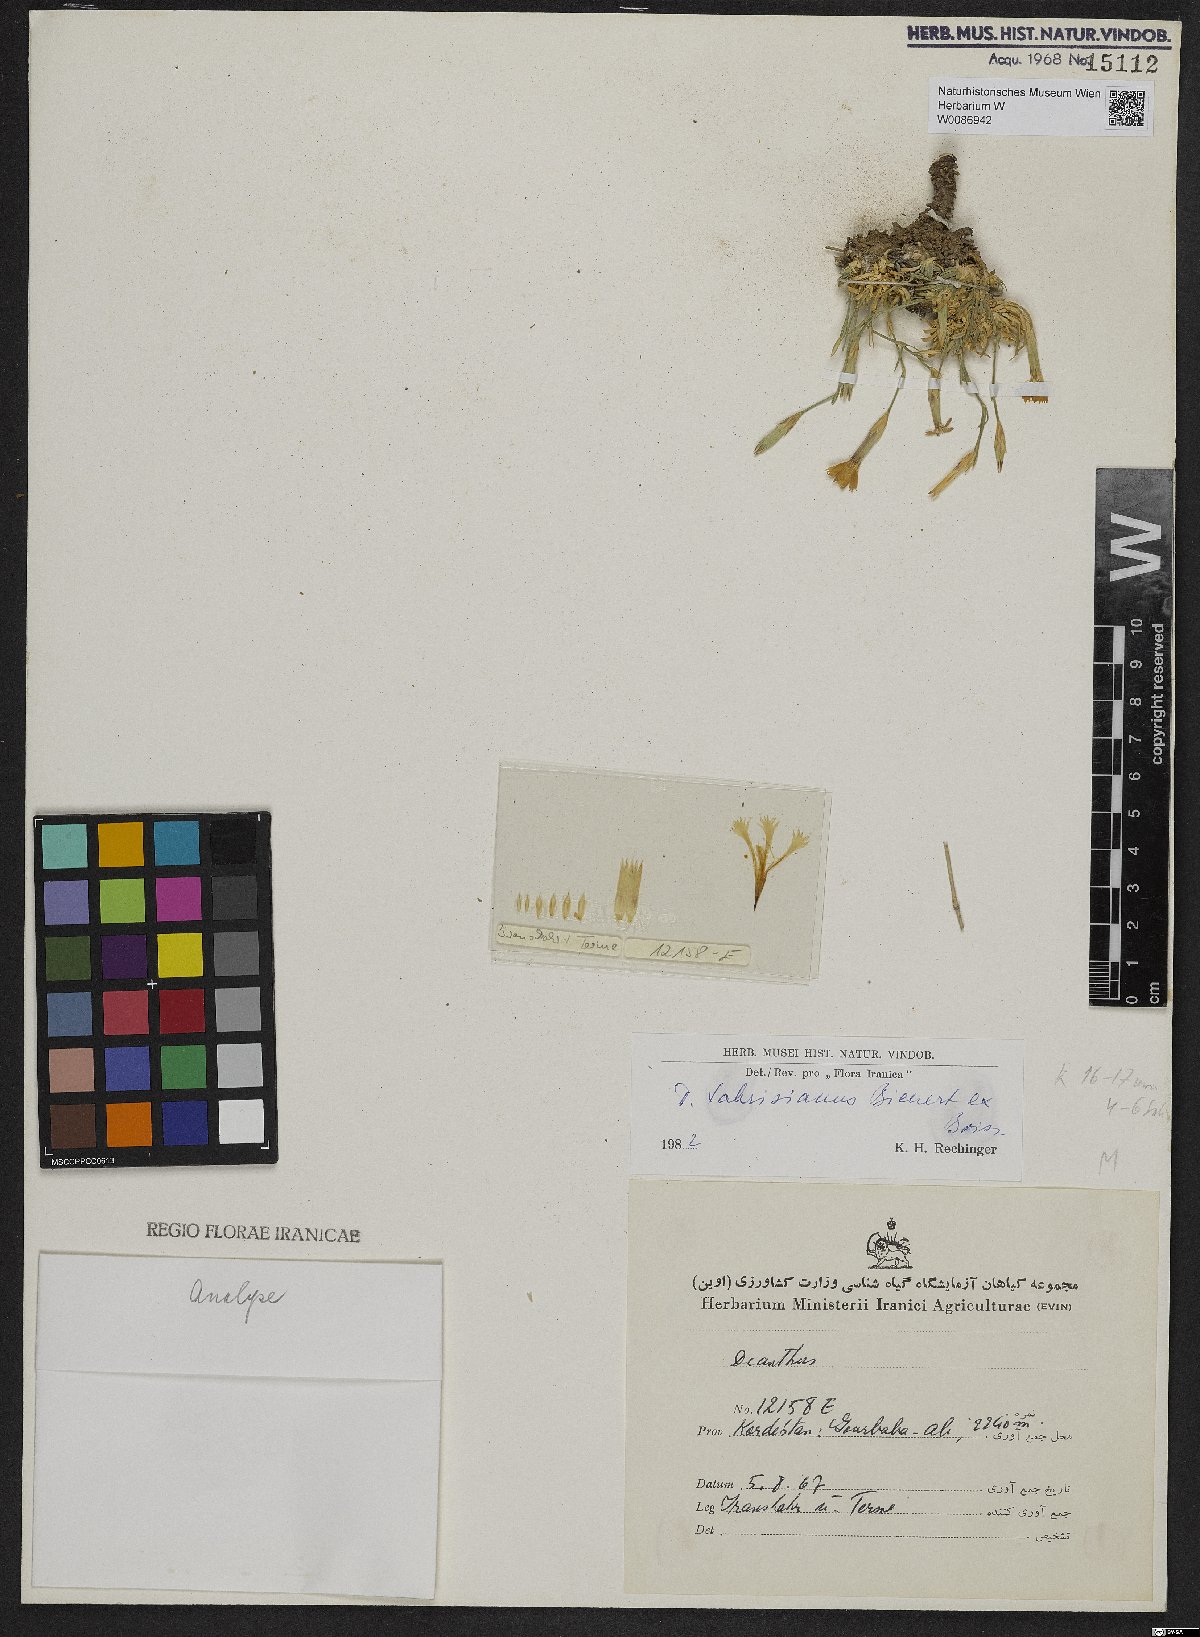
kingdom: Plantae
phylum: Tracheophyta
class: Magnoliopsida
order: Caryophyllales
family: Caryophyllaceae
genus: Dianthus
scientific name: Dianthus tabrisianus
